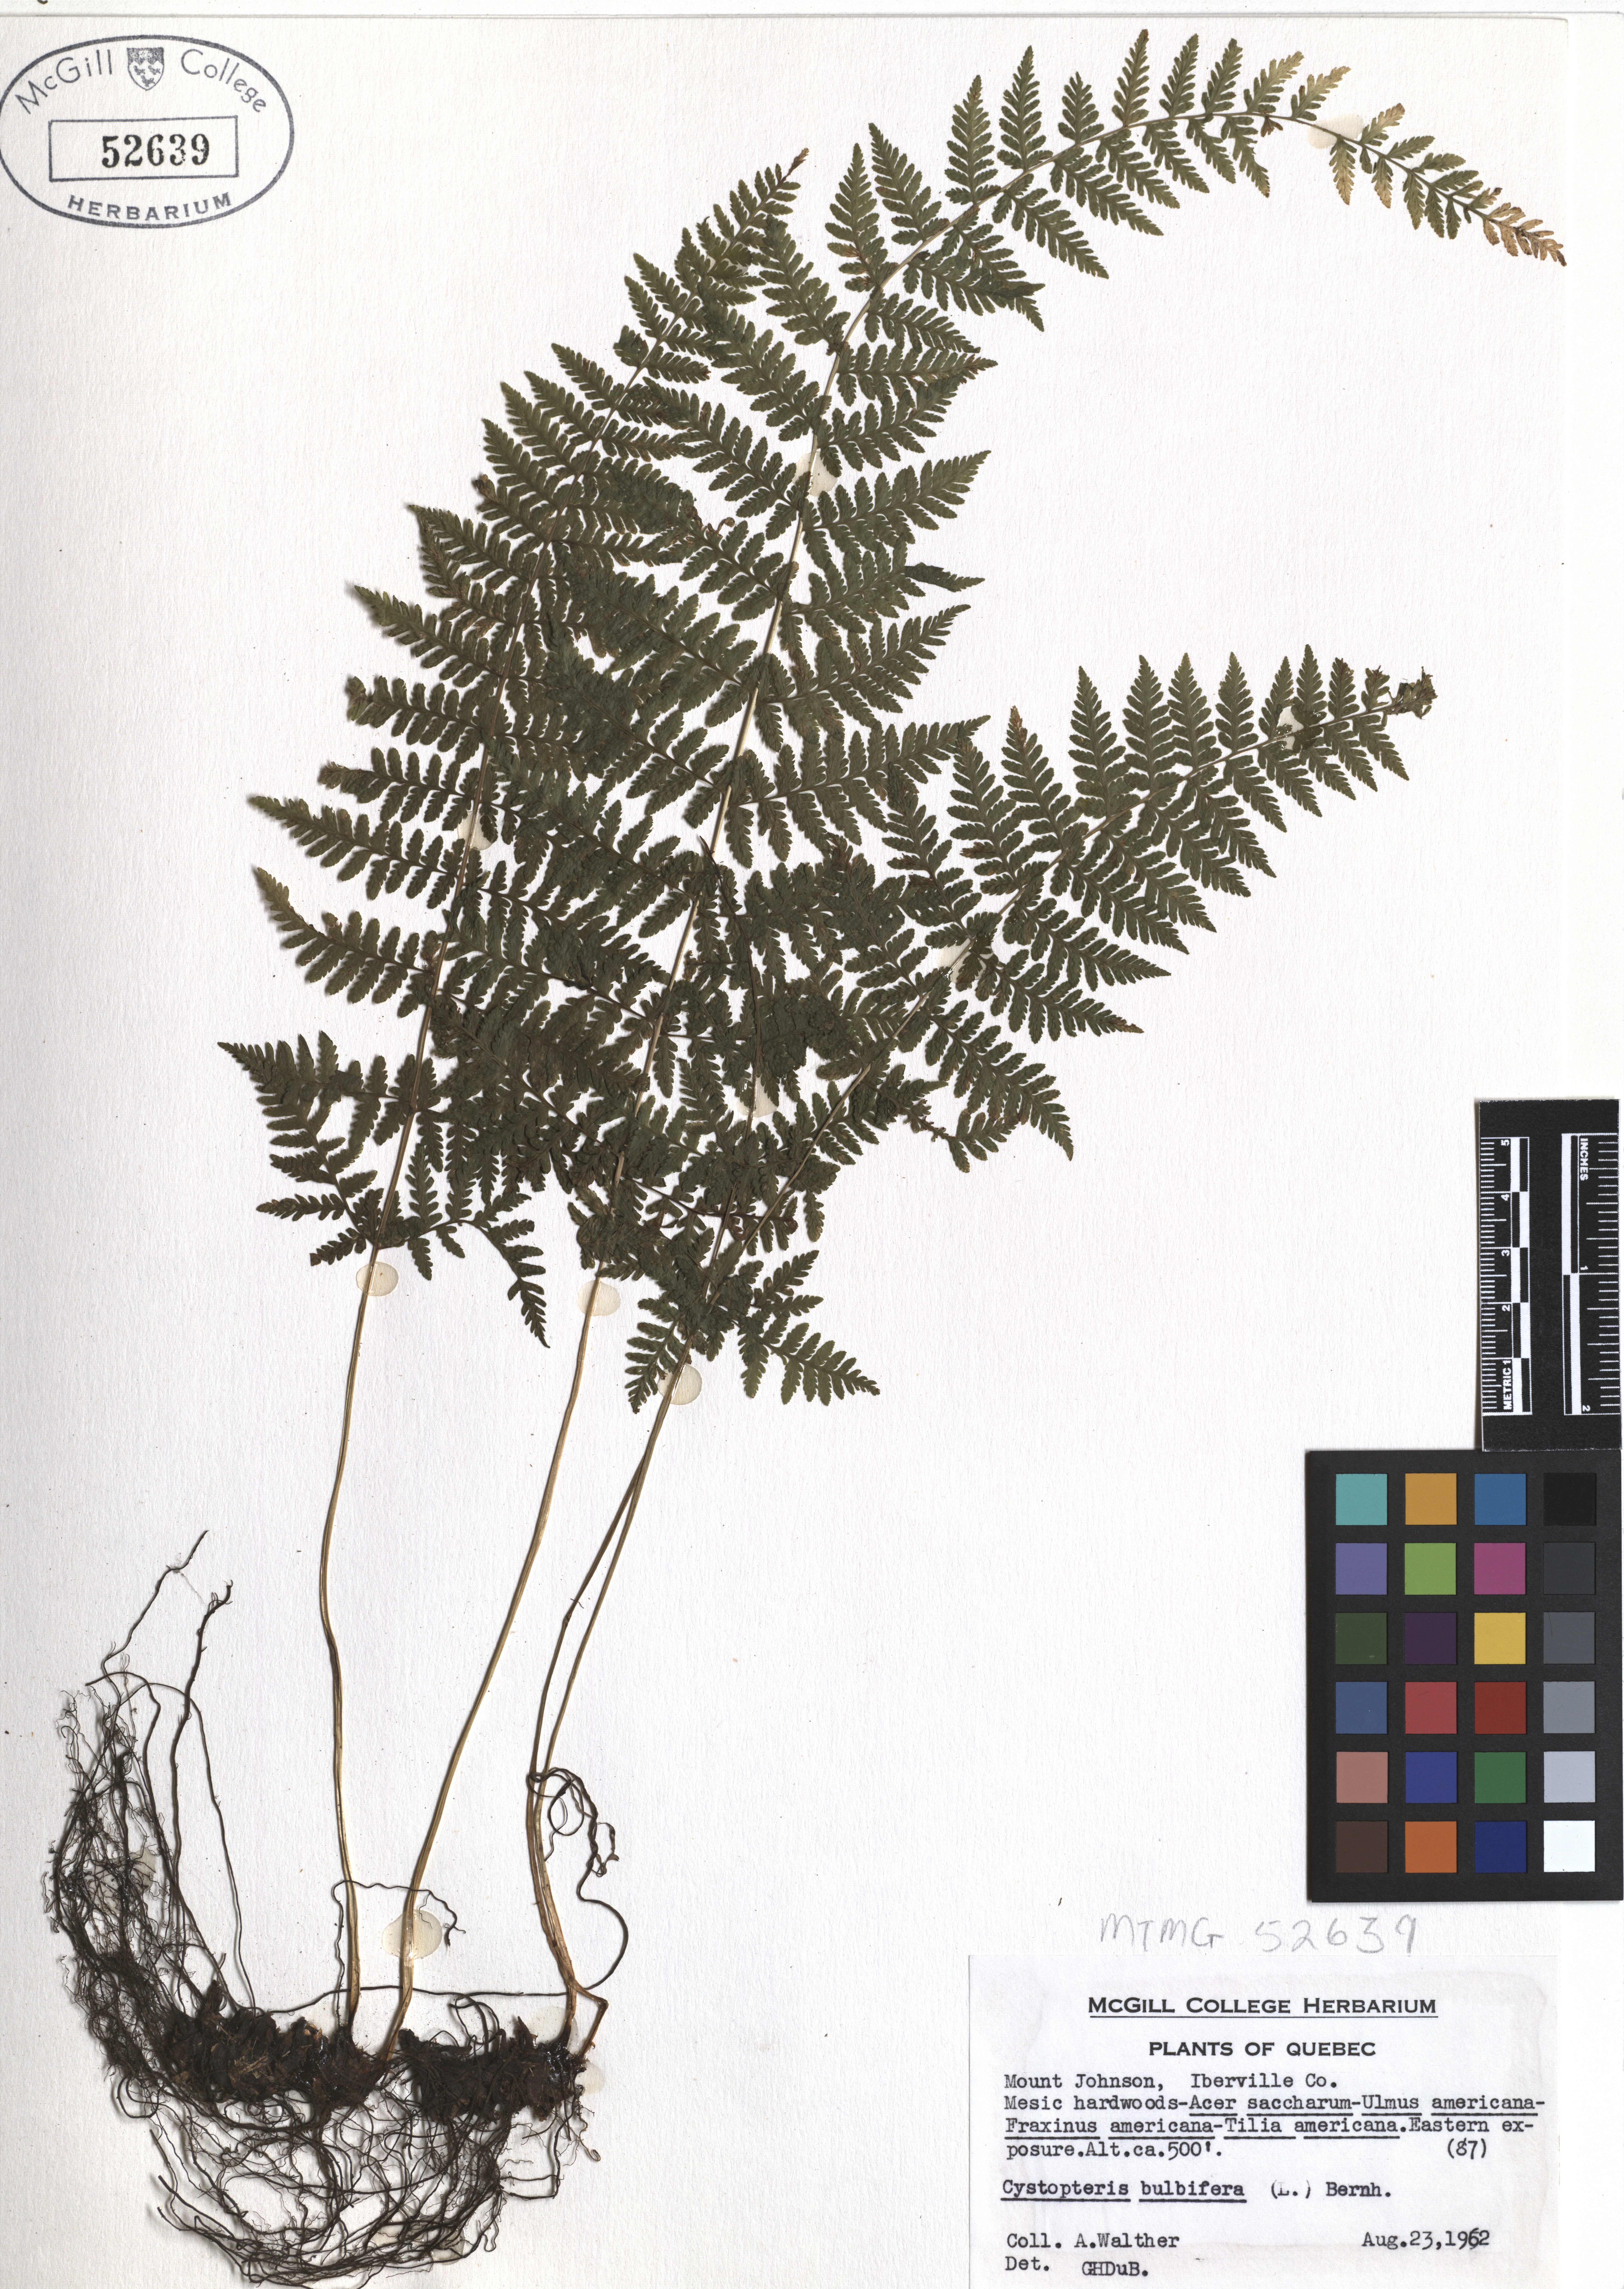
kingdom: Plantae
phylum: Tracheophyta
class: Polypodiopsida
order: Polypodiales
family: Cystopteridaceae
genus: Cystopteris
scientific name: Cystopteris bulbifera
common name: Bulblet bladder fern
